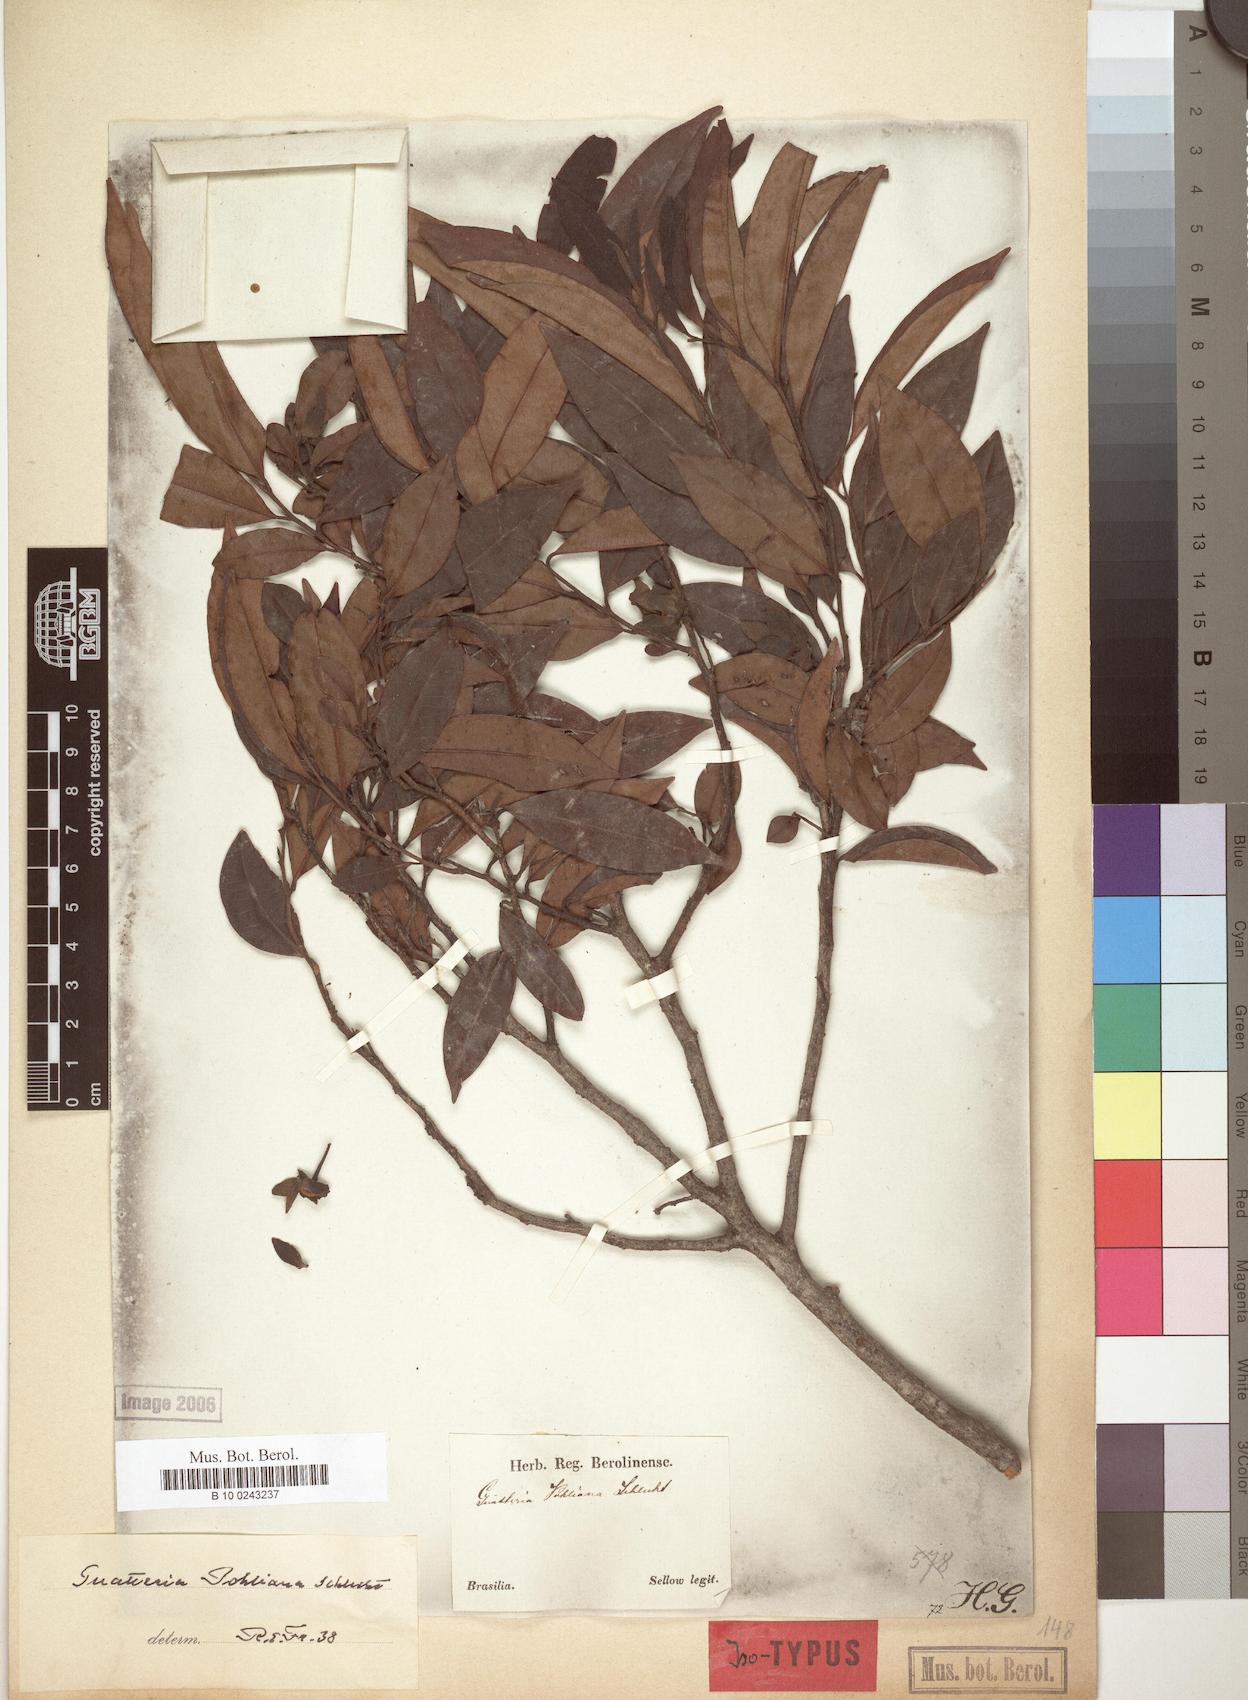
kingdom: Plantae
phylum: Tracheophyta
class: Magnoliopsida
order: Magnoliales
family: Annonaceae
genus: Guatteria
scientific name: Guatteria pohliana
